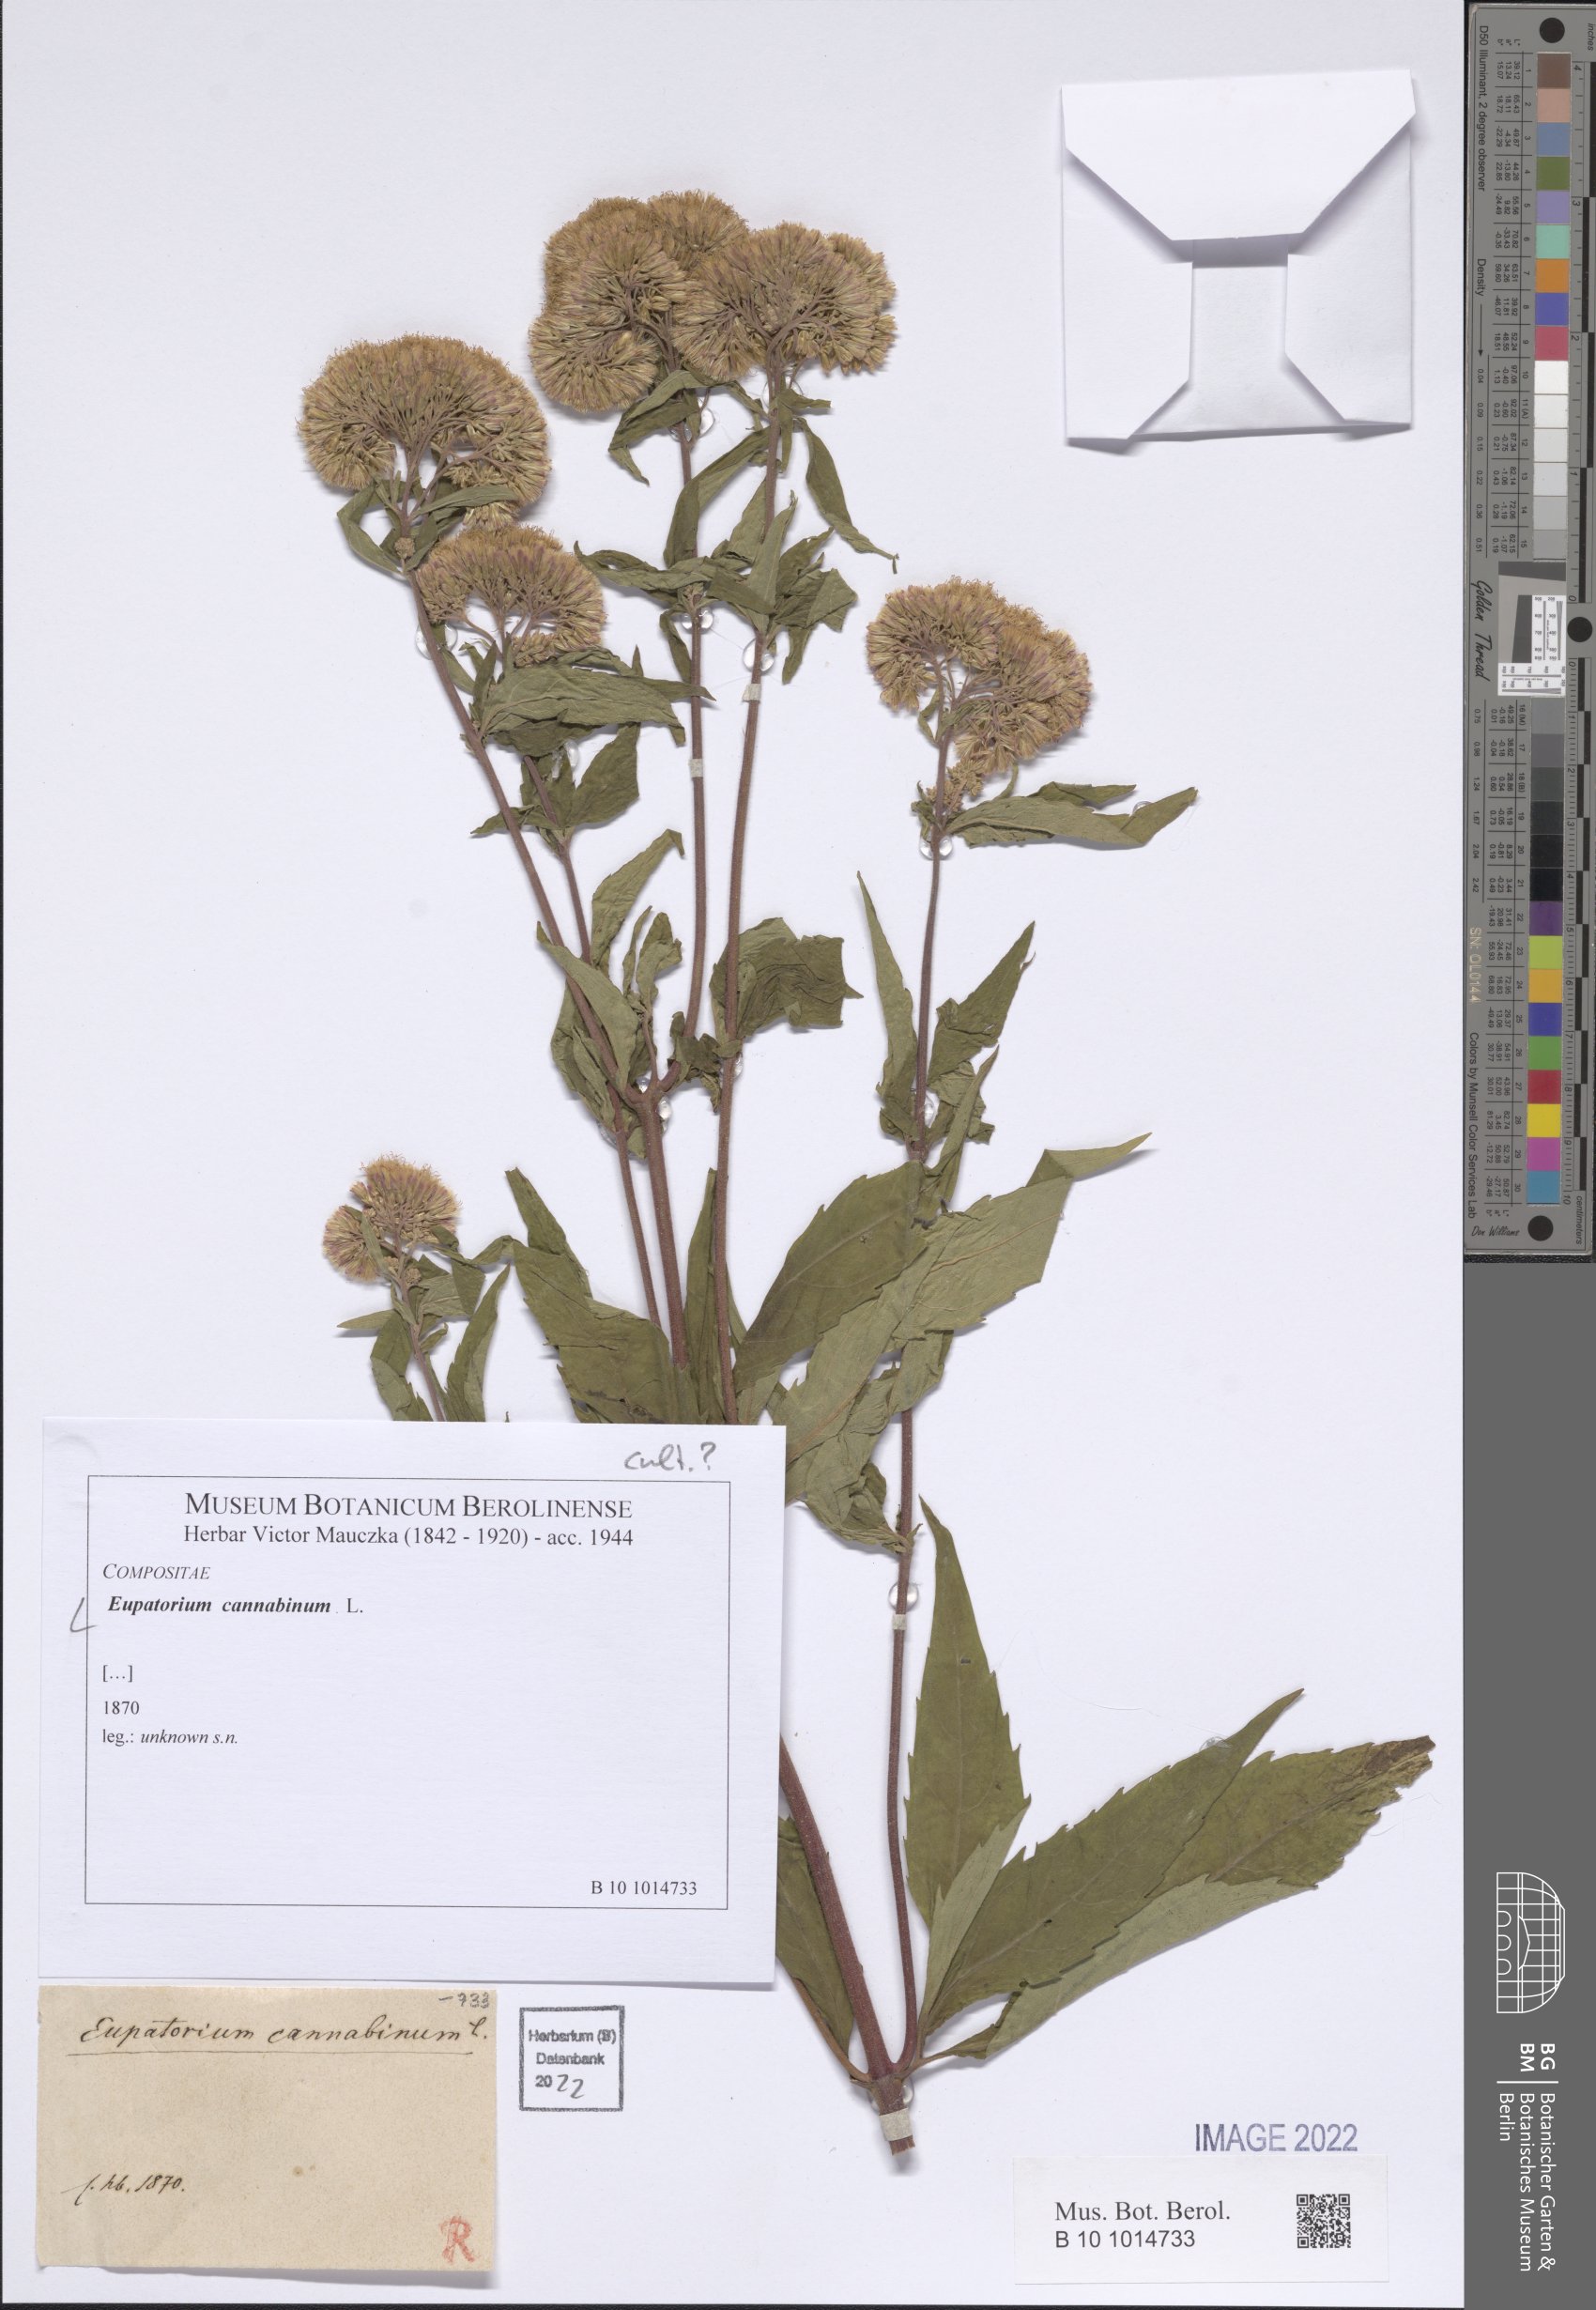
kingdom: Plantae
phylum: Tracheophyta
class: Magnoliopsida
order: Asterales
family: Asteraceae
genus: Eupatorium
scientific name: Eupatorium cannabinum
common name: Hemp-agrimony
